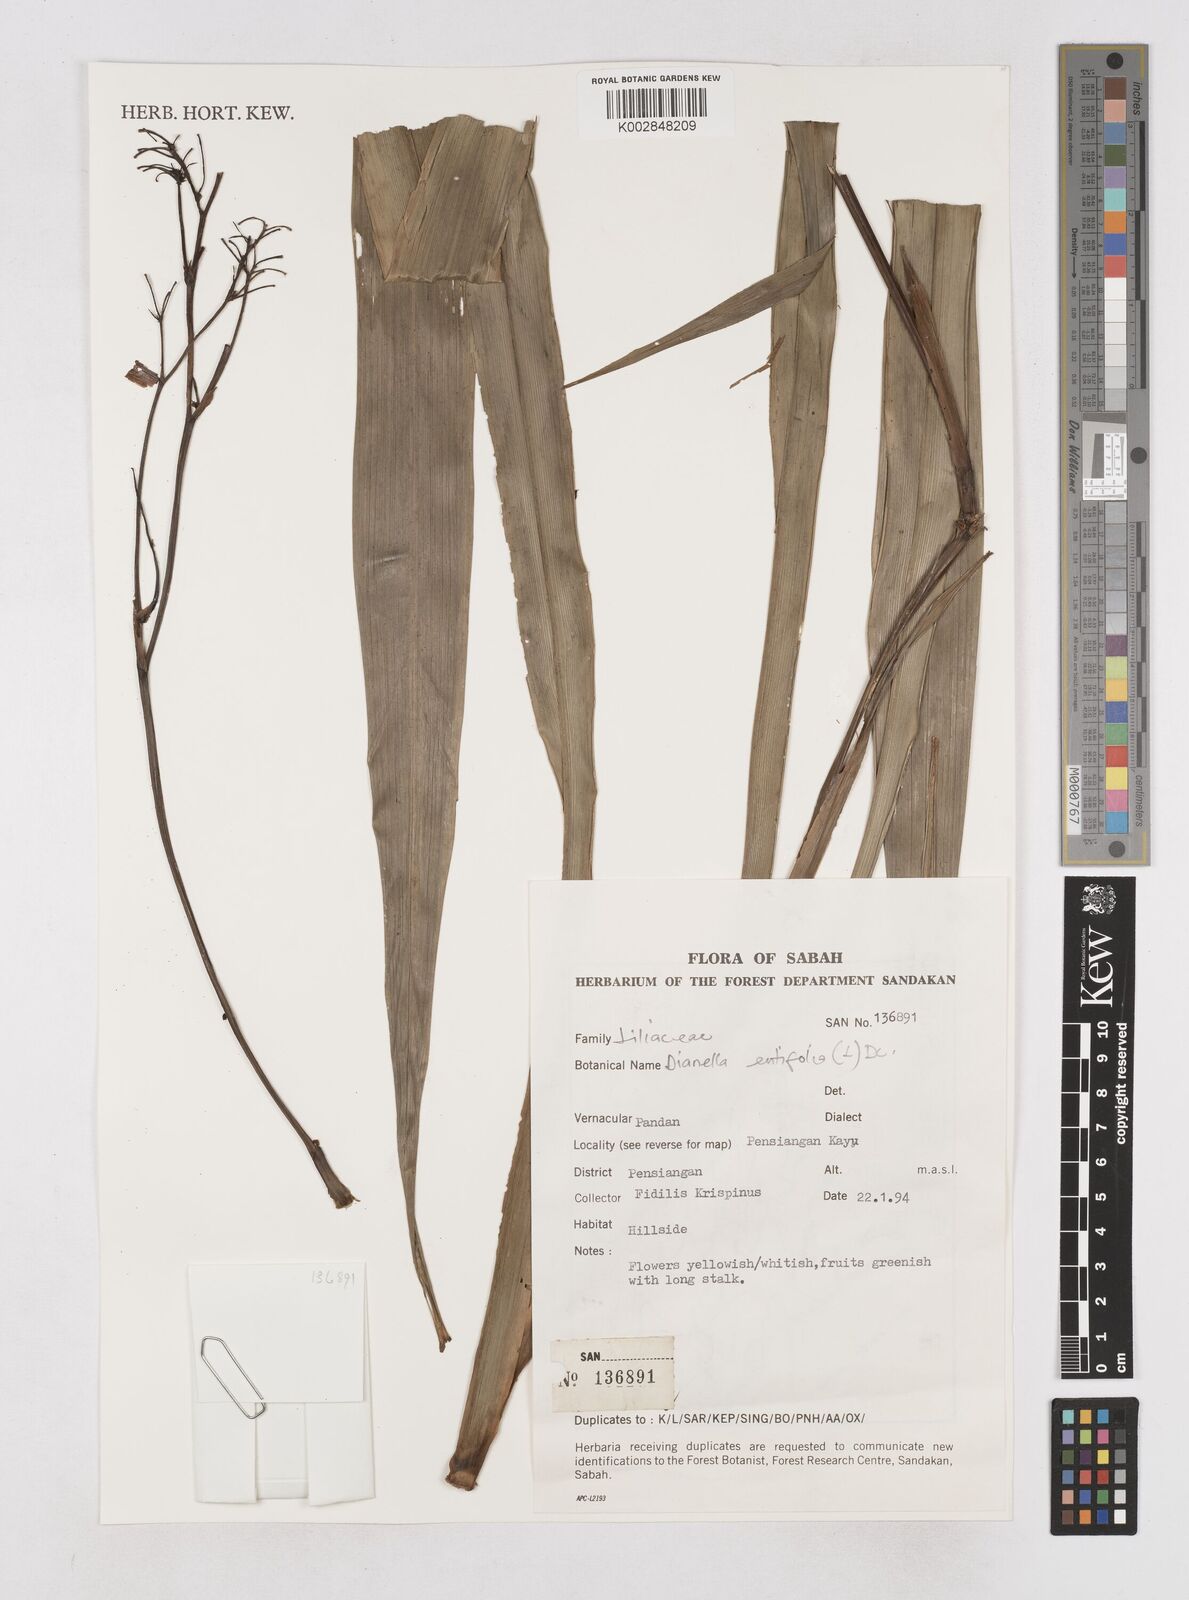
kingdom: Plantae
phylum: Tracheophyta
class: Liliopsida
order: Asparagales
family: Asphodelaceae
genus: Dianella
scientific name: Dianella ensifolia
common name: New zealand lilyplant
